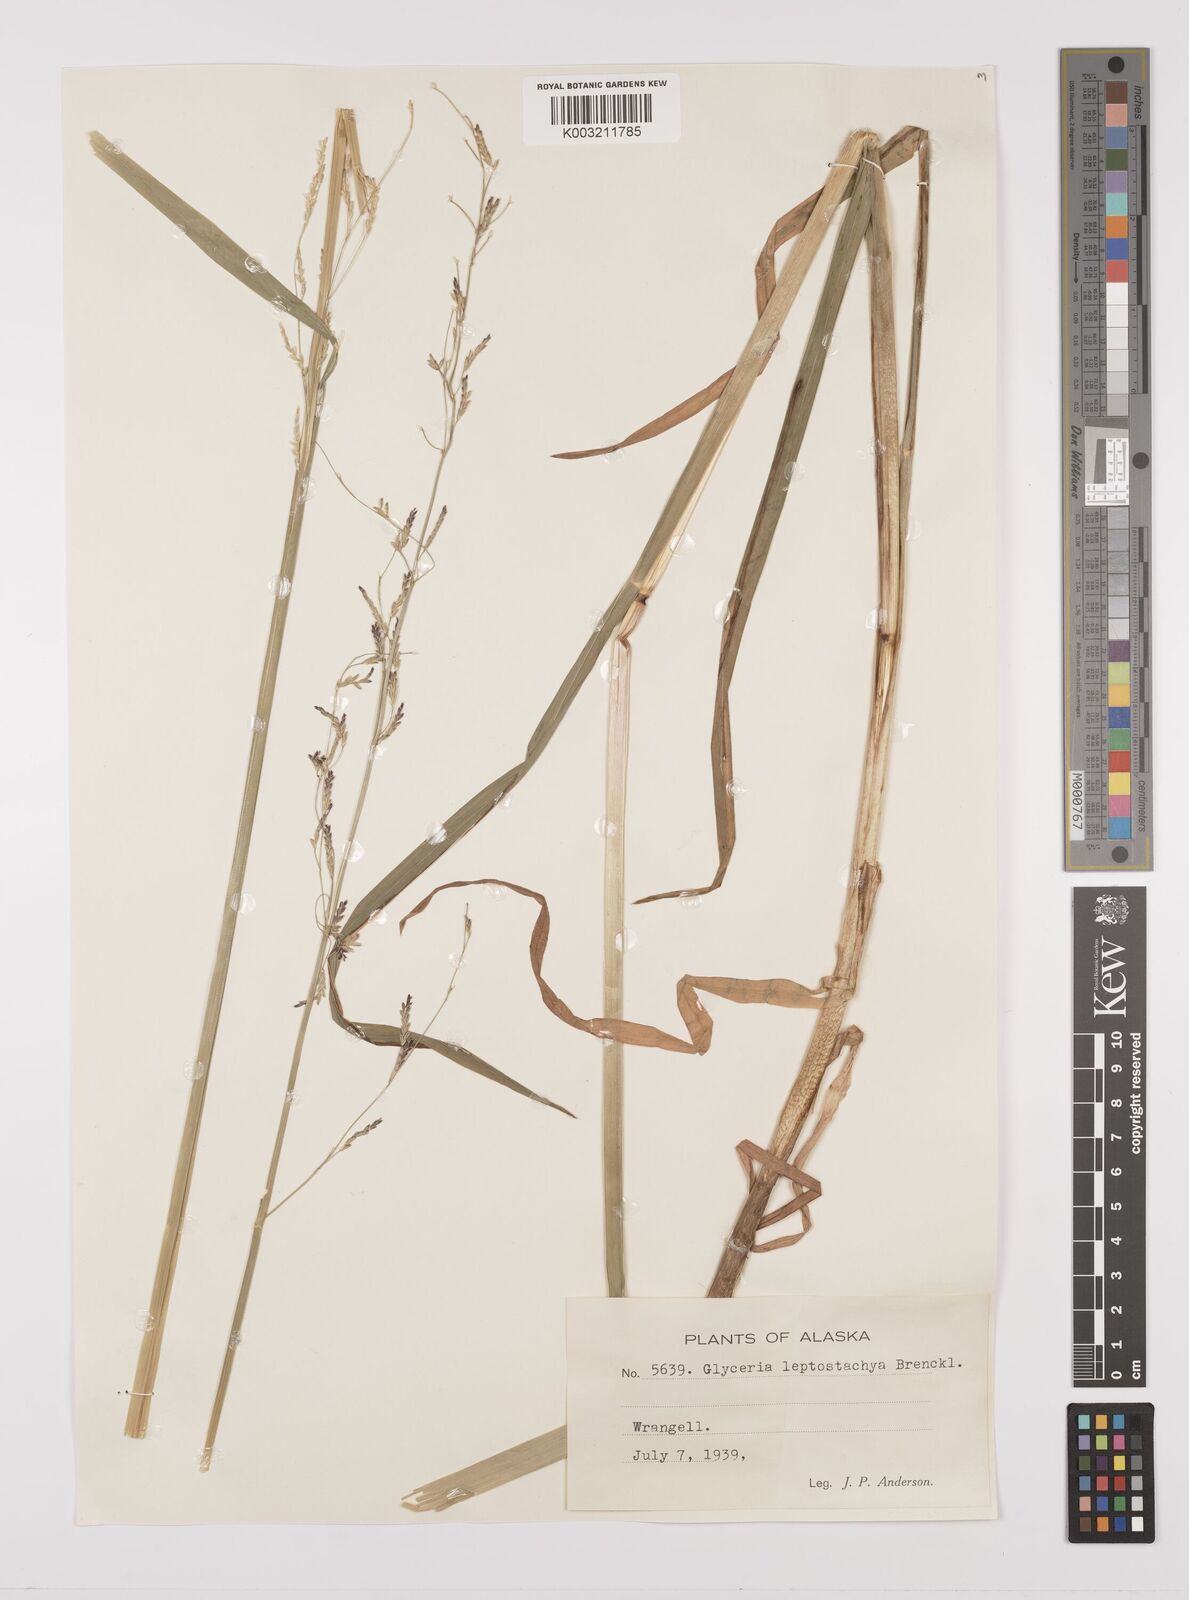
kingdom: Plantae
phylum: Tracheophyta
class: Liliopsida
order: Poales
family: Poaceae
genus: Glyceria
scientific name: Glyceria leptostachya
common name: Davy's mannagrass
